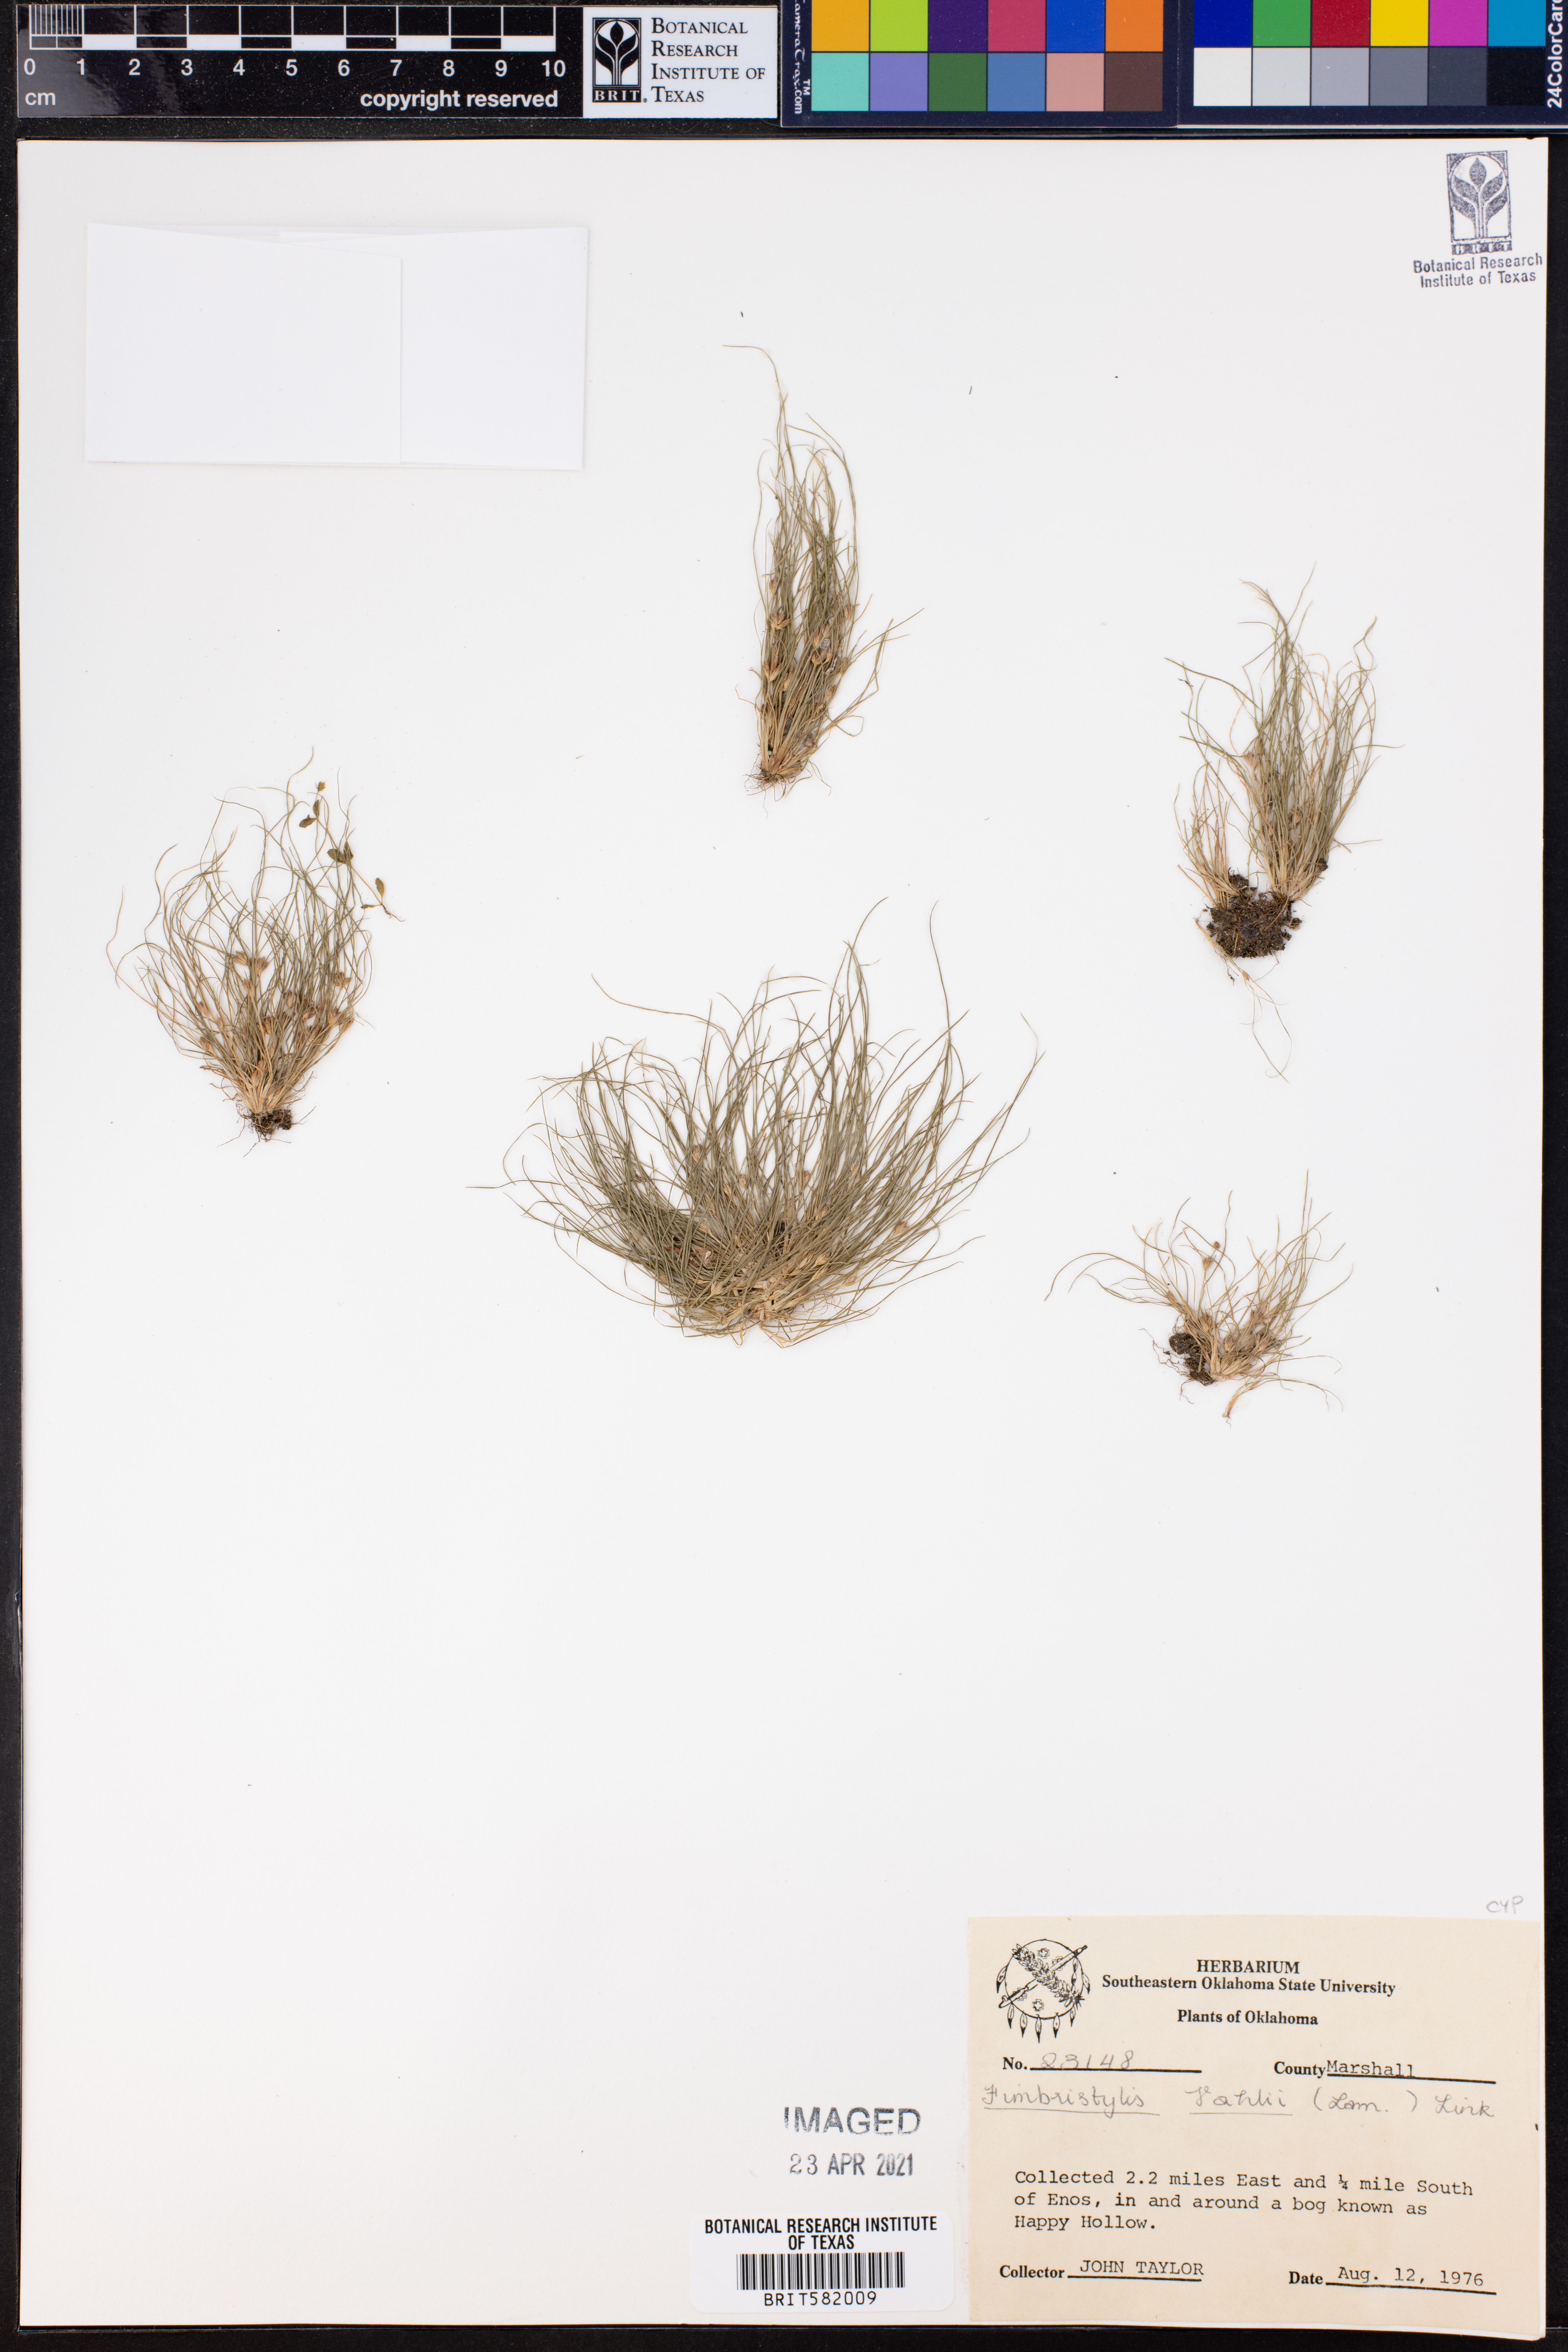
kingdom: Plantae
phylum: Tracheophyta
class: Liliopsida
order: Poales
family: Cyperaceae
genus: Fimbristylis
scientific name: Fimbristylis vahlii
